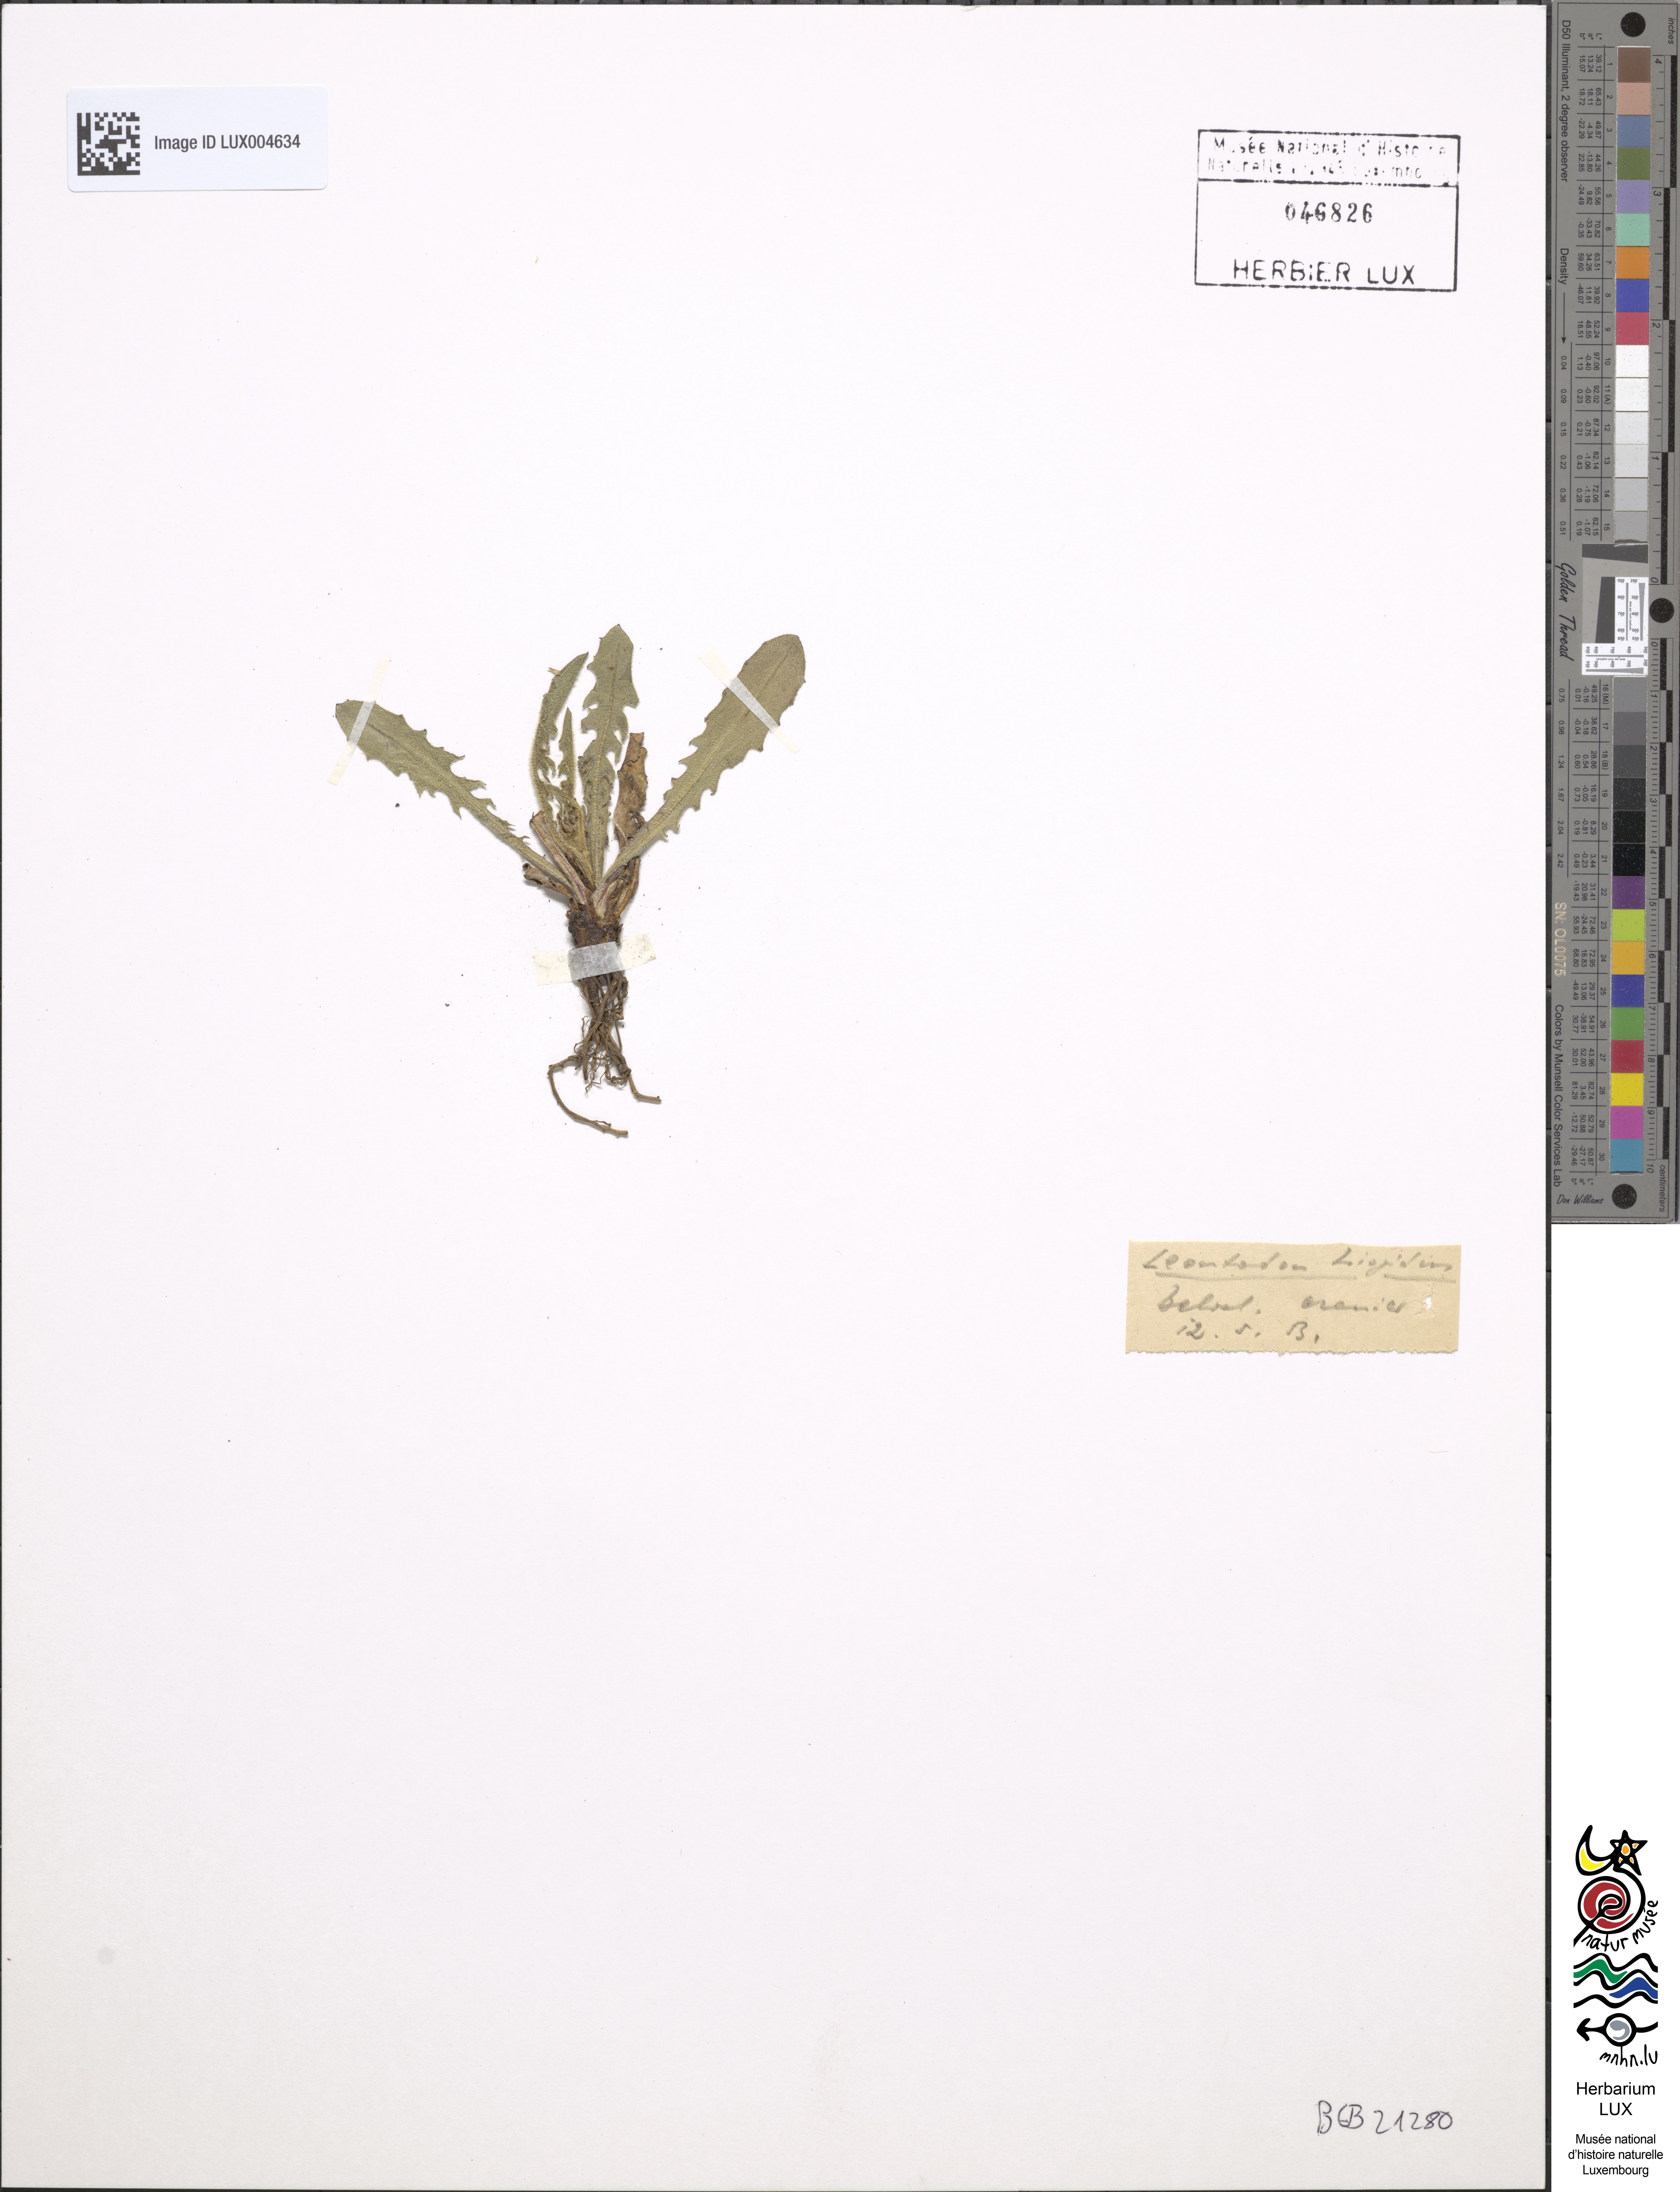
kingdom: Plantae
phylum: Tracheophyta
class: Magnoliopsida
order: Asterales
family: Asteraceae
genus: Leontodon
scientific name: Leontodon hispidus
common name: Rough hawkbit
